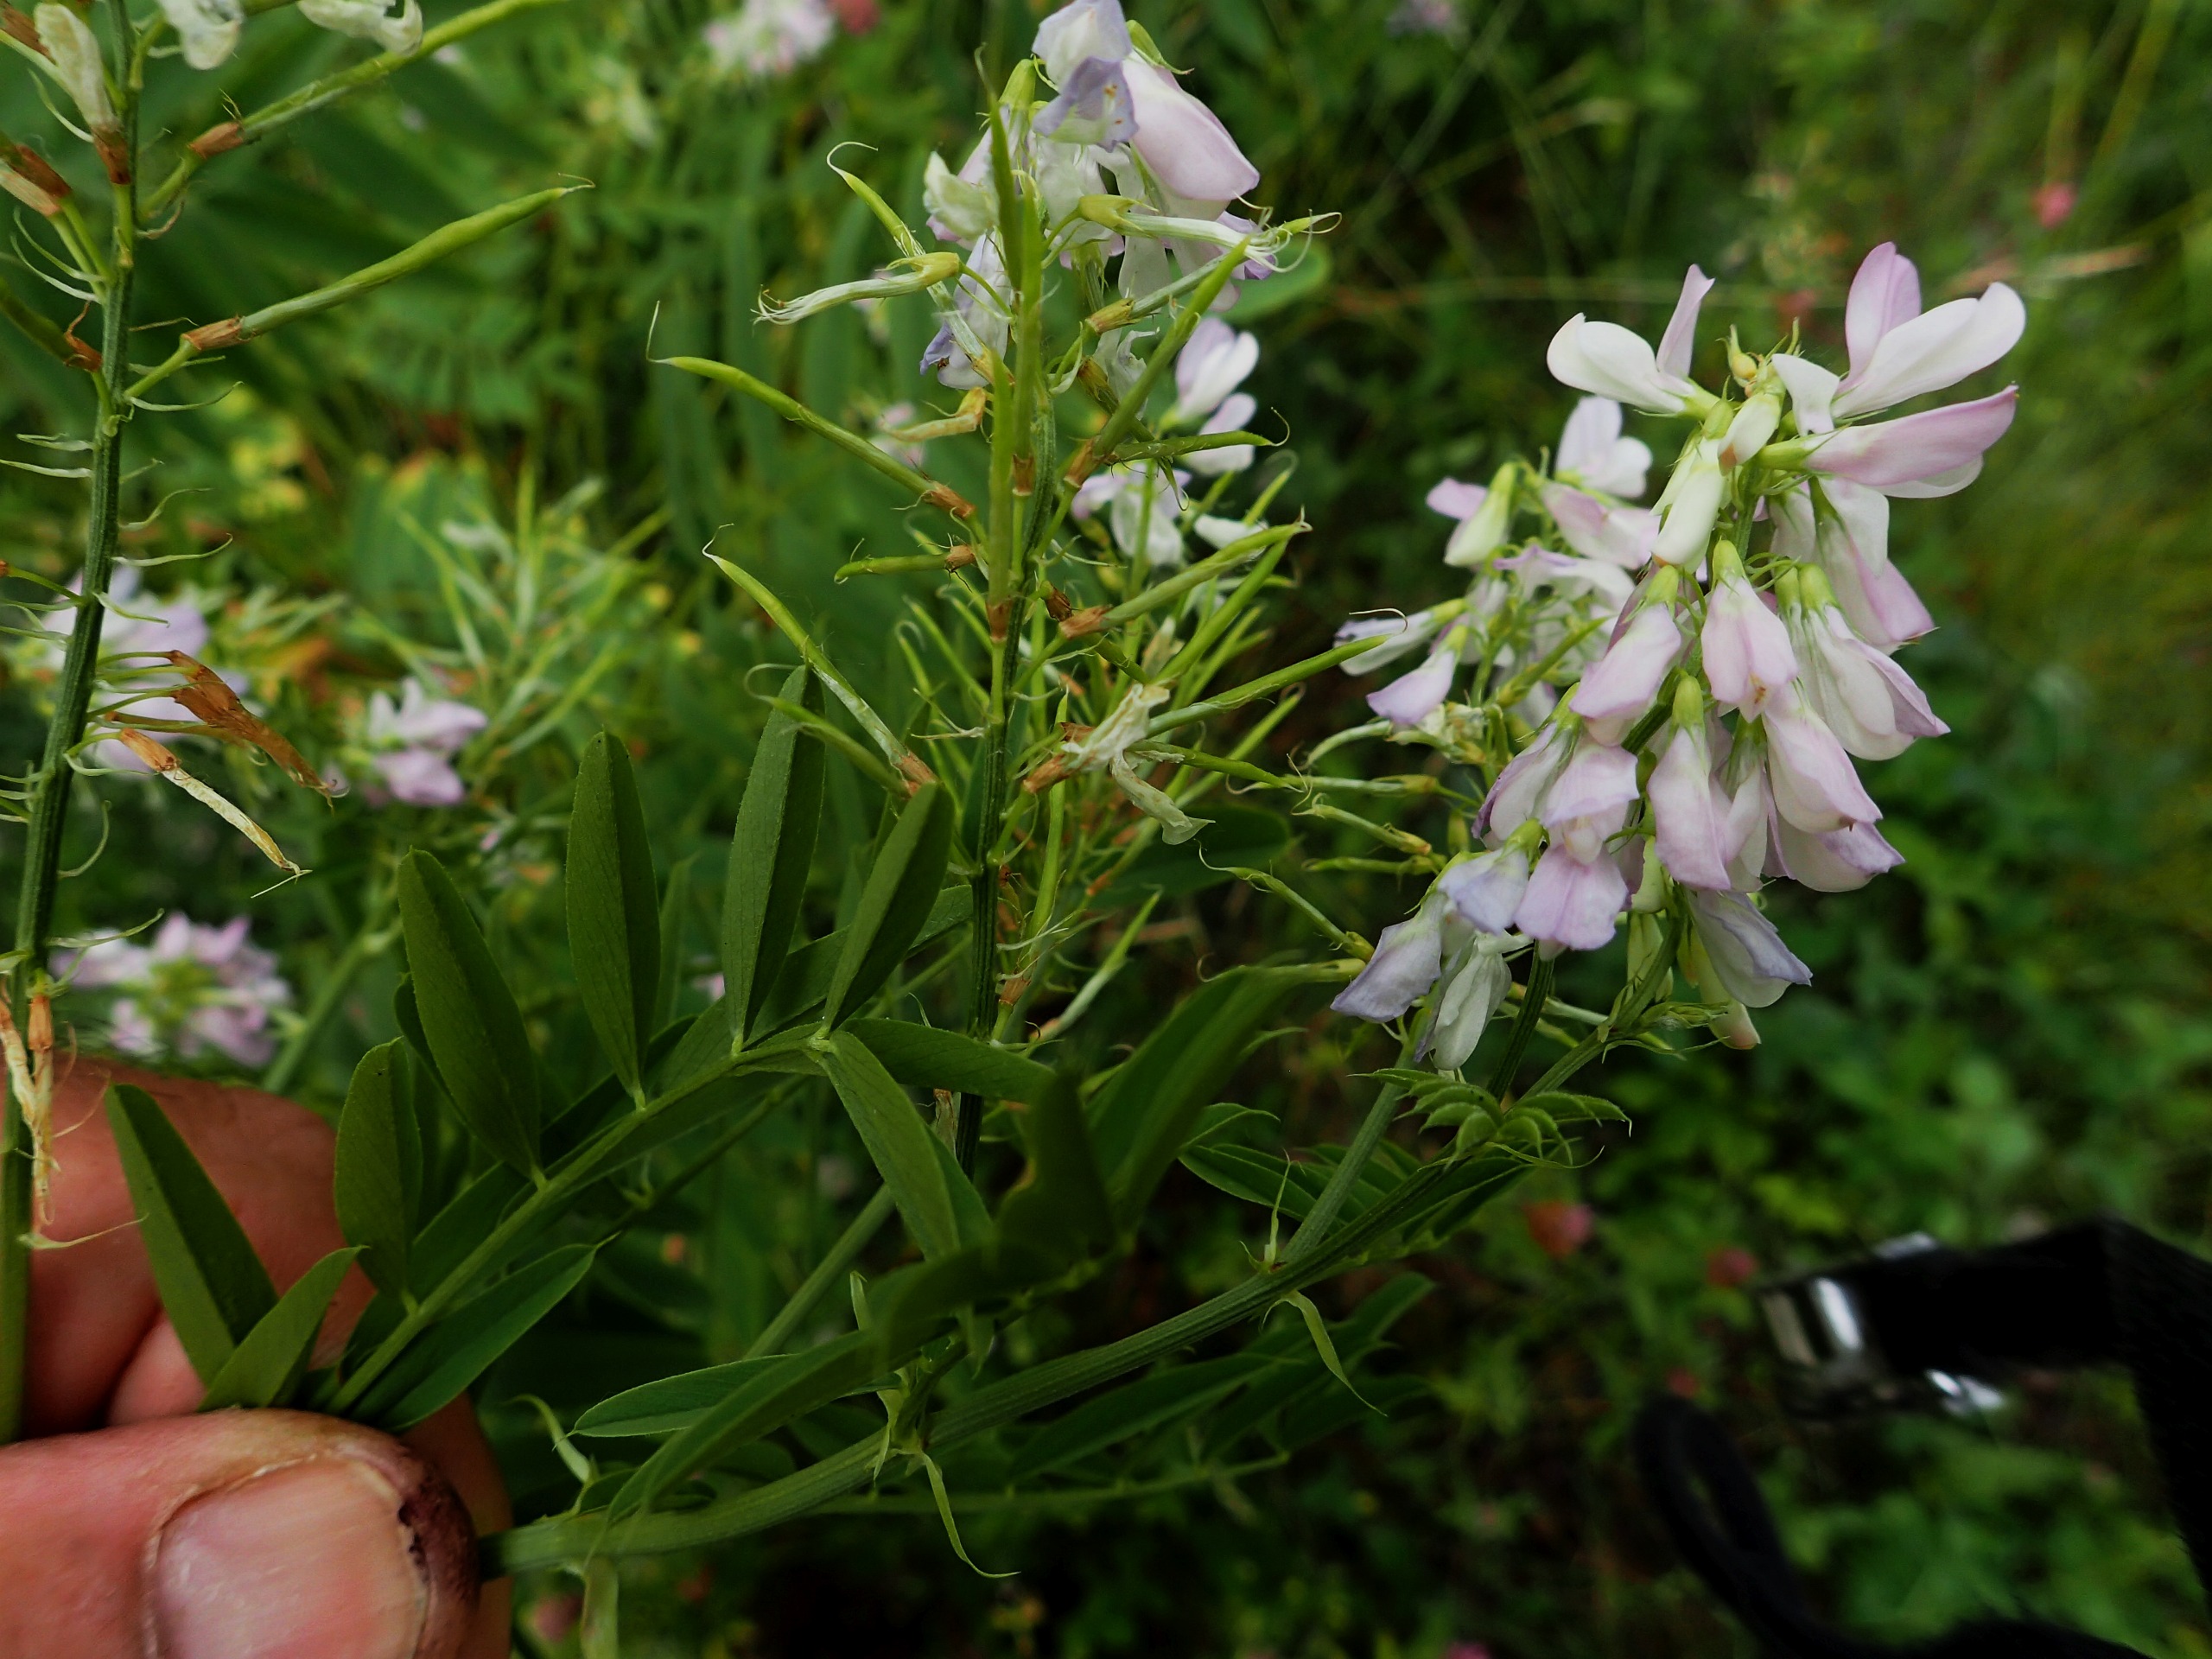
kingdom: Plantae
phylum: Tracheophyta
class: Magnoliopsida
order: Fabales
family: Fabaceae
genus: Galega
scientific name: Galega officinalis
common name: Læge-stregbælg
